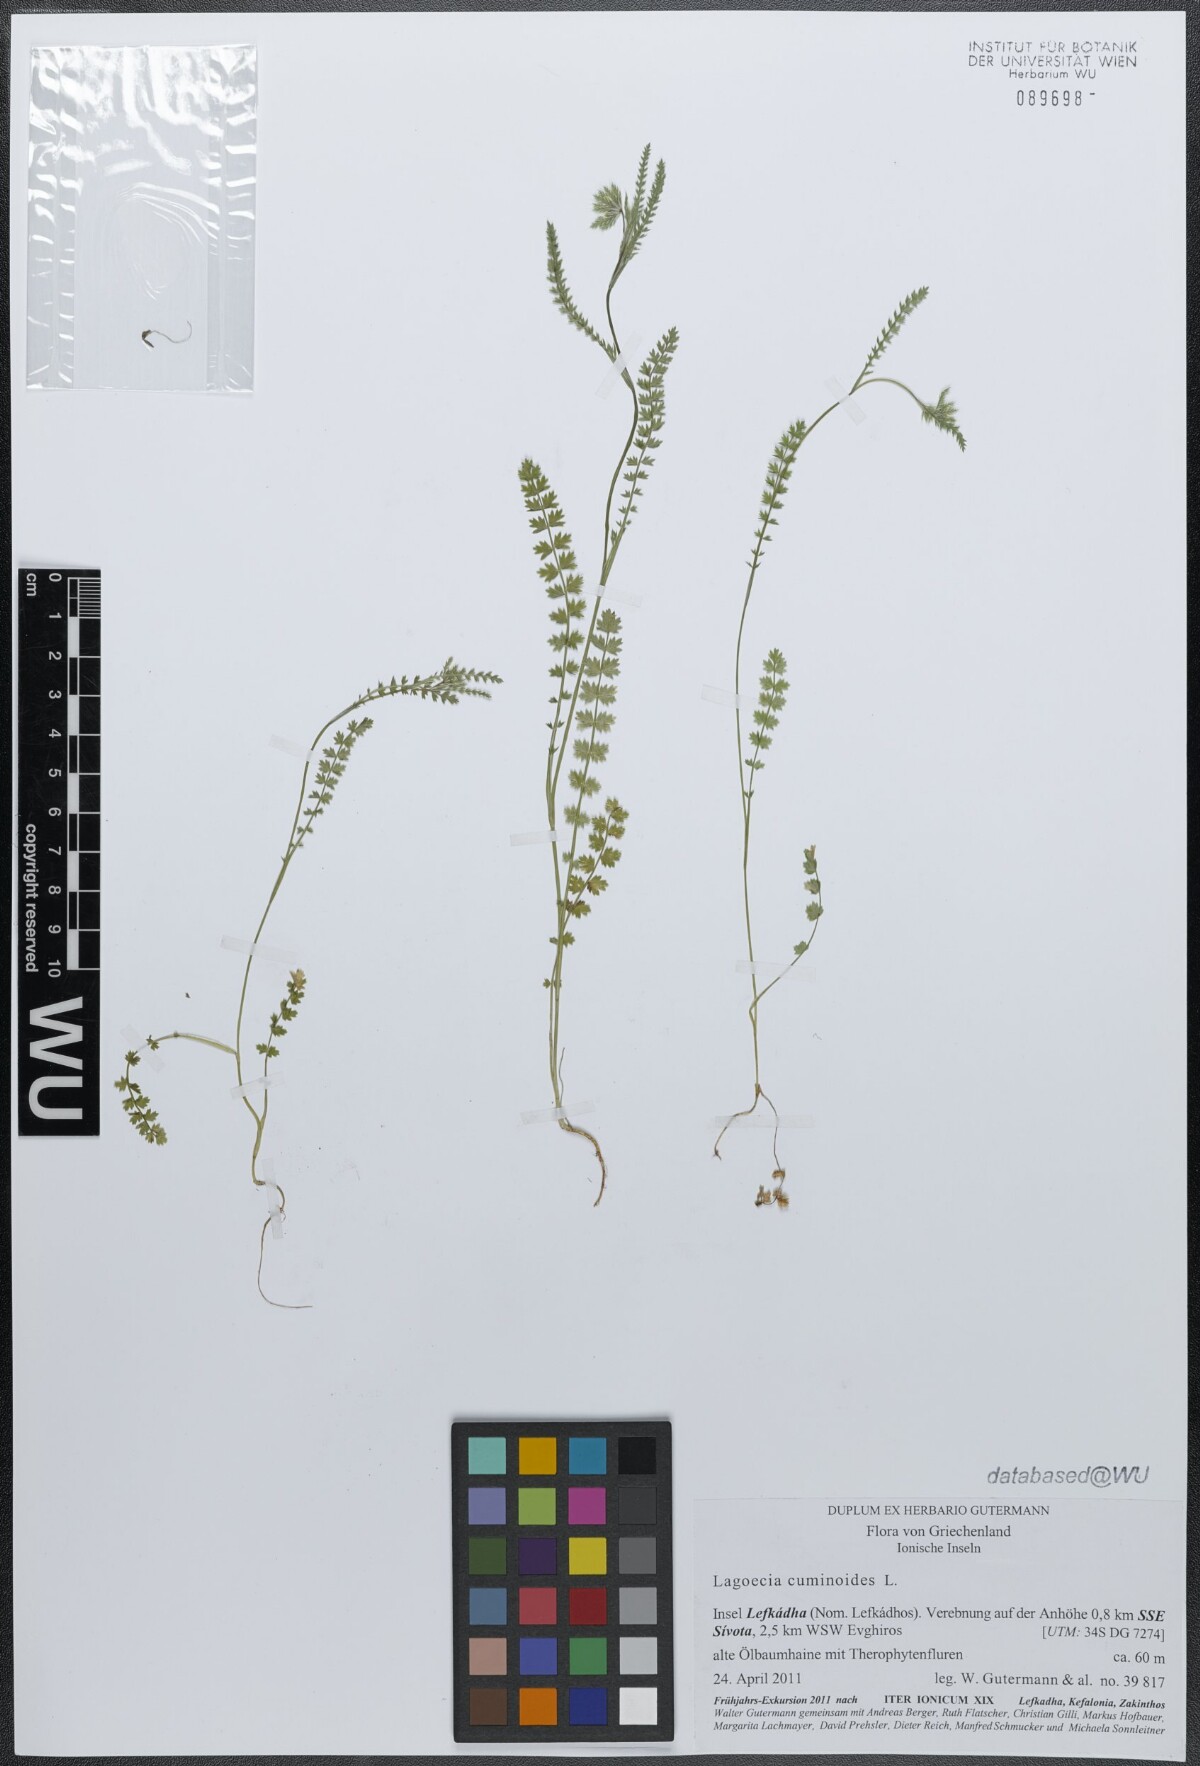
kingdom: Plantae
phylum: Tracheophyta
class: Magnoliopsida
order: Apiales
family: Apiaceae
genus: Lagoecia
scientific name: Lagoecia cuminoides
